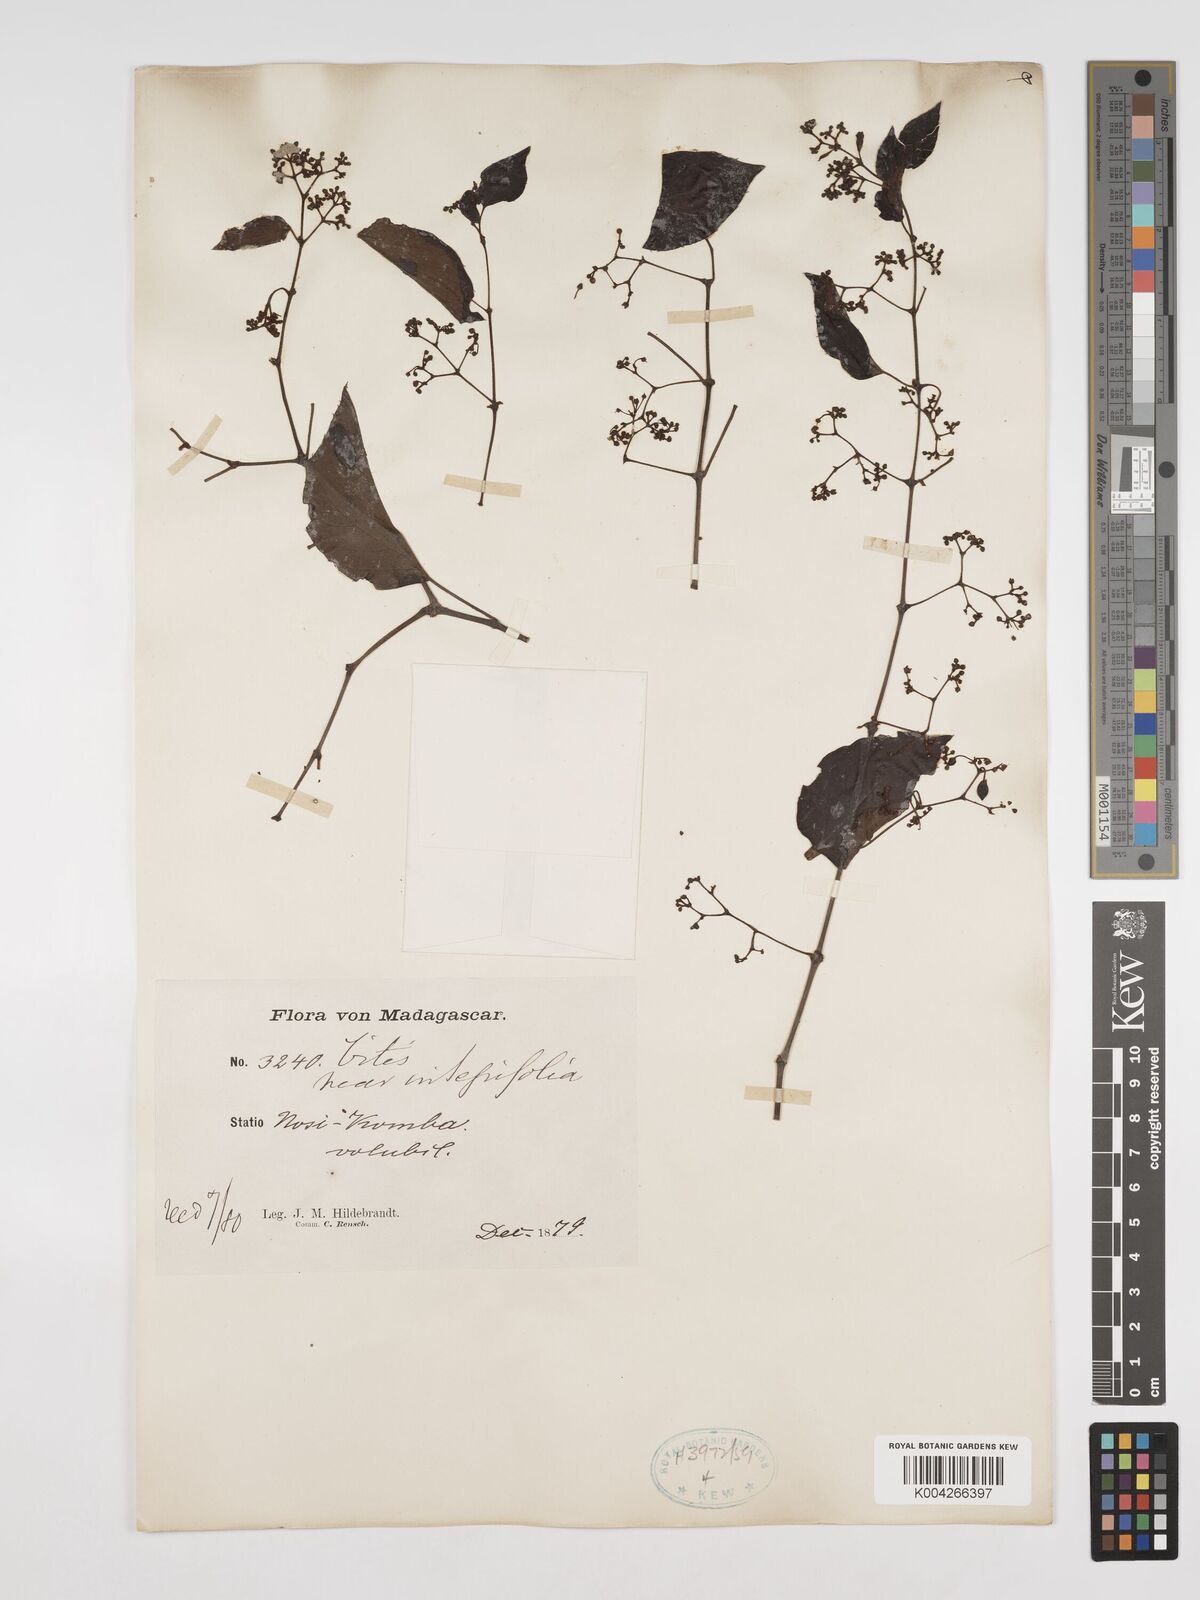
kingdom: Plantae
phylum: Tracheophyta
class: Magnoliopsida
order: Vitales
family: Vitaceae
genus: Cissus
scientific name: Cissus
